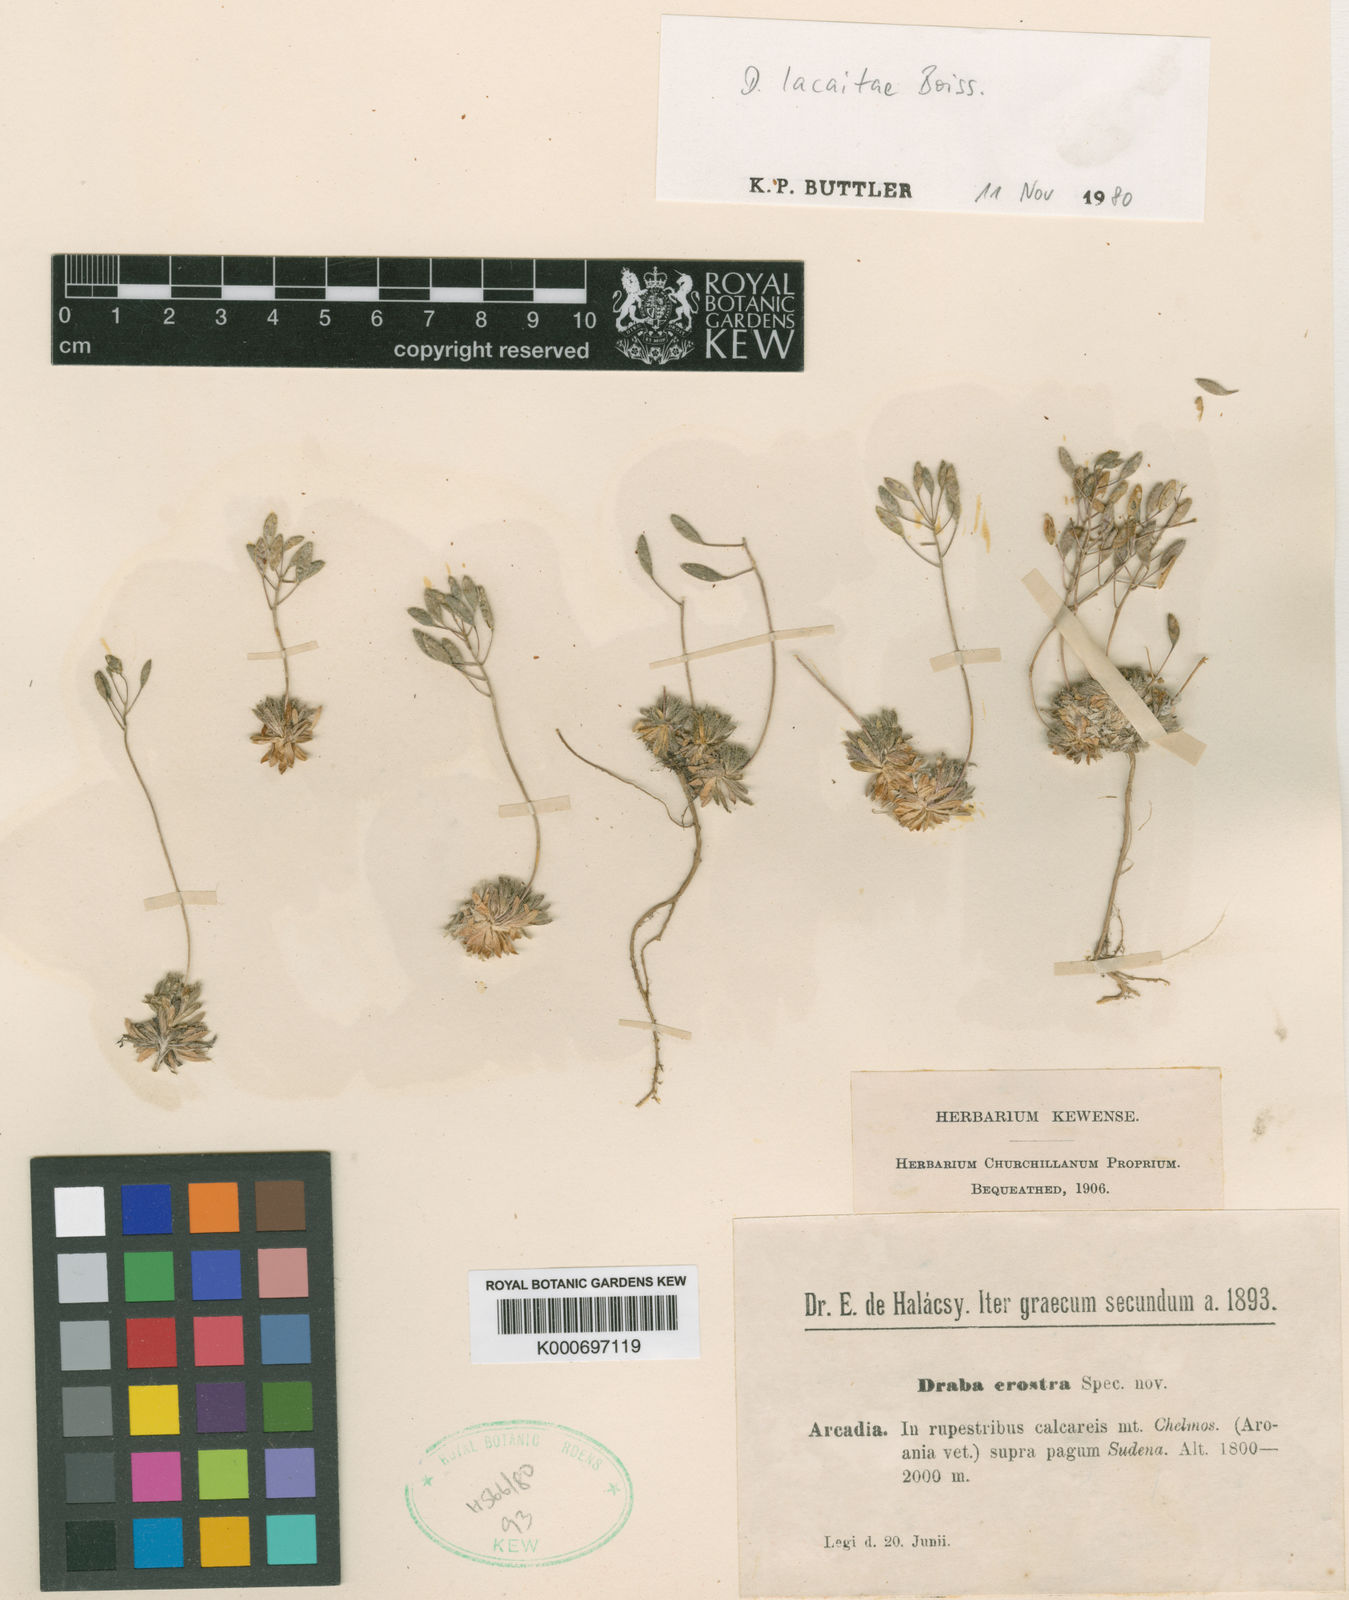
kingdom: Plantae
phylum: Tracheophyta
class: Magnoliopsida
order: Brassicales
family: Brassicaceae
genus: Draba
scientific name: Draba lacaitae
